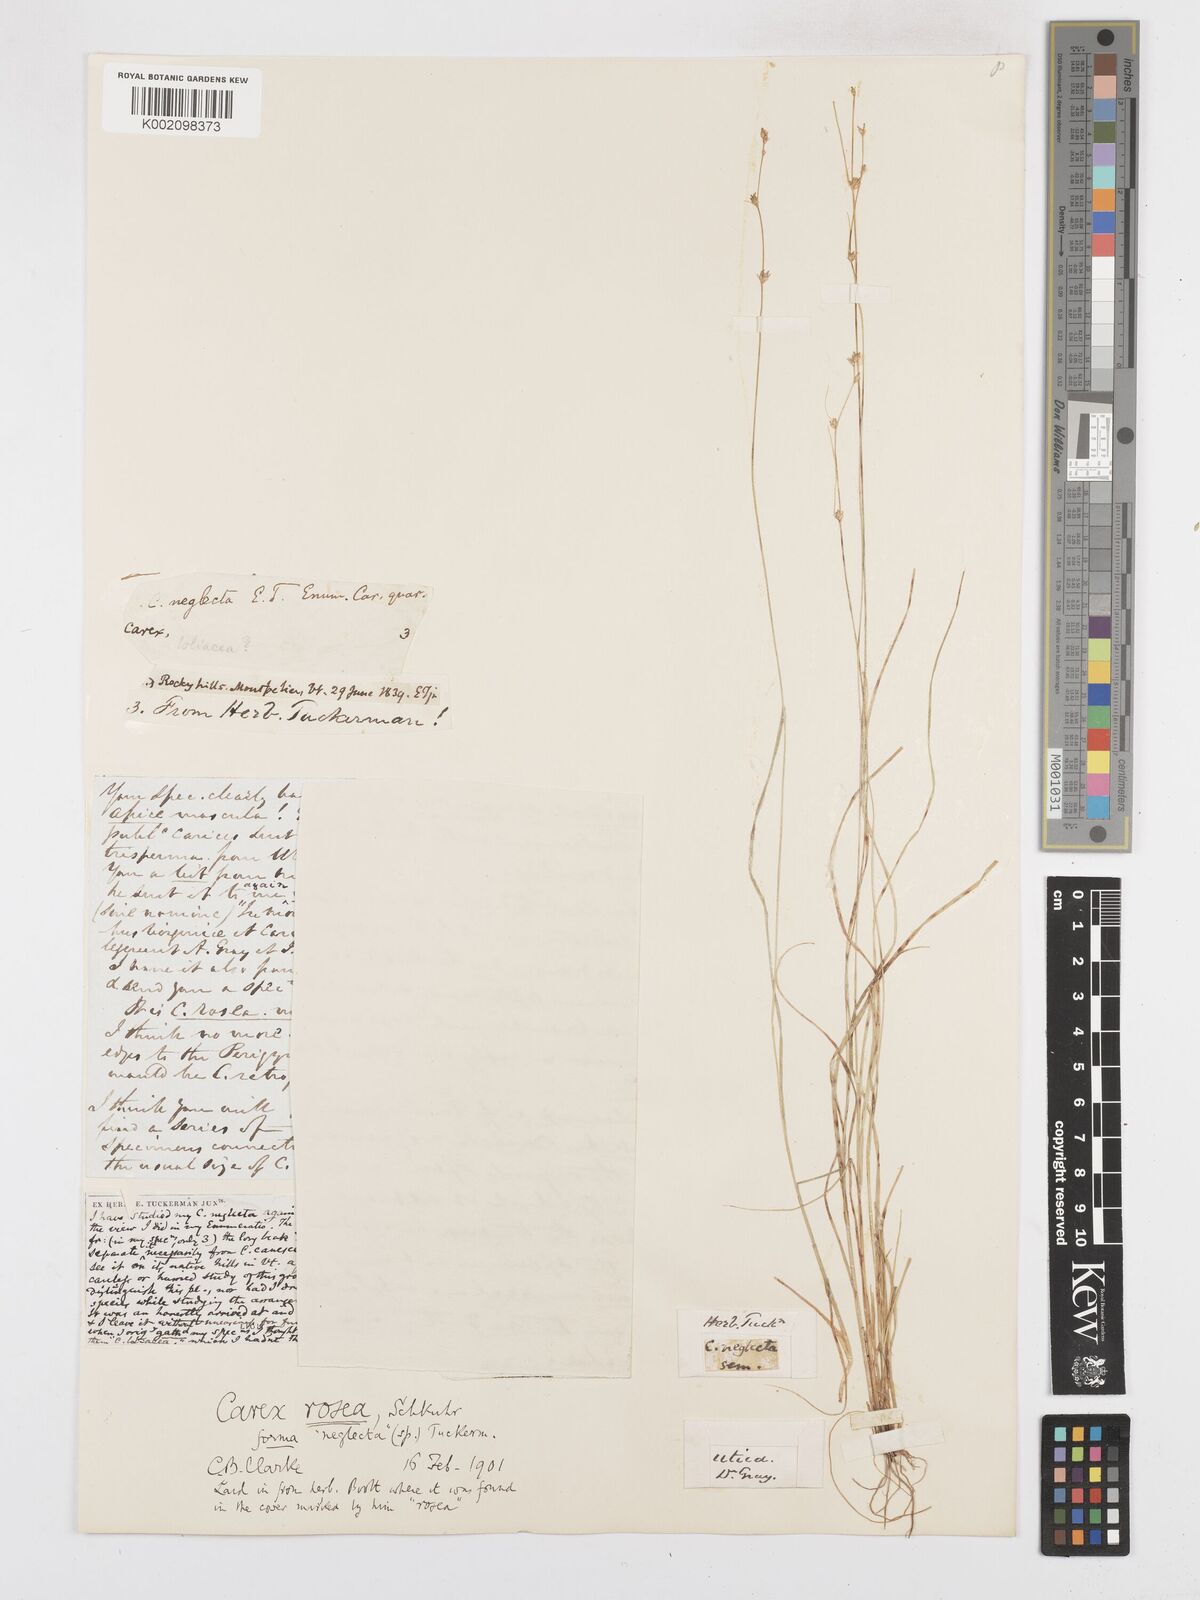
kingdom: Plantae
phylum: Tracheophyta
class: Liliopsida
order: Poales
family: Cyperaceae
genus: Carex
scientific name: Carex rosea
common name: Curly-styled wood sedge
